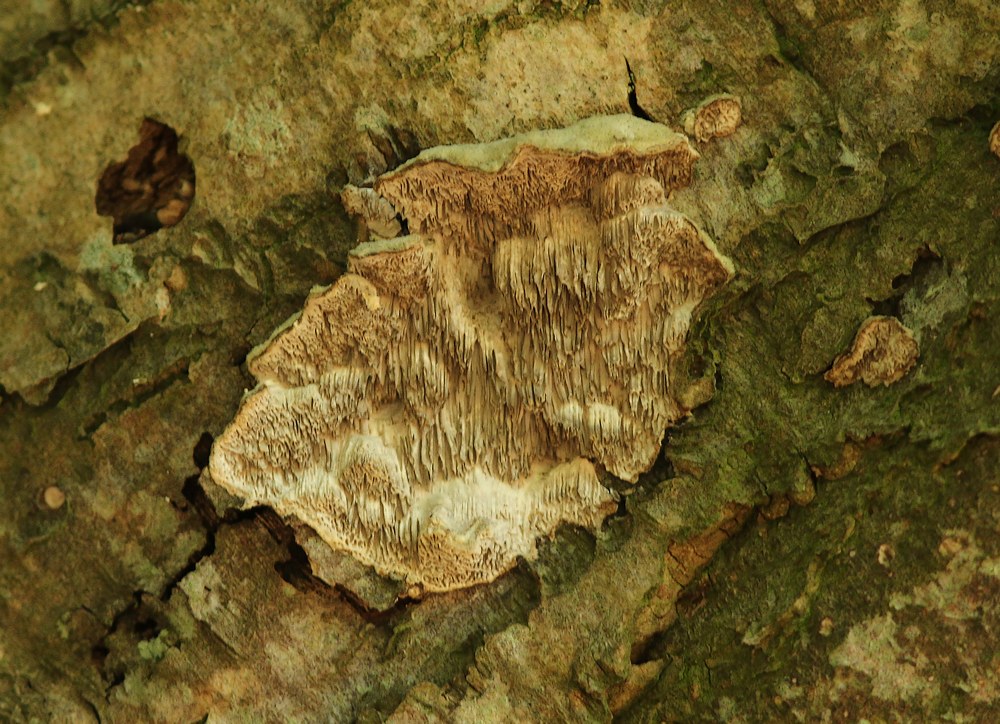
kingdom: Fungi
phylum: Basidiomycota
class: Agaricomycetes
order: Polyporales
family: Cerrenaceae
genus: Cerrena
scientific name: Cerrena unicolor
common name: ensfarvet læderporesvamp
